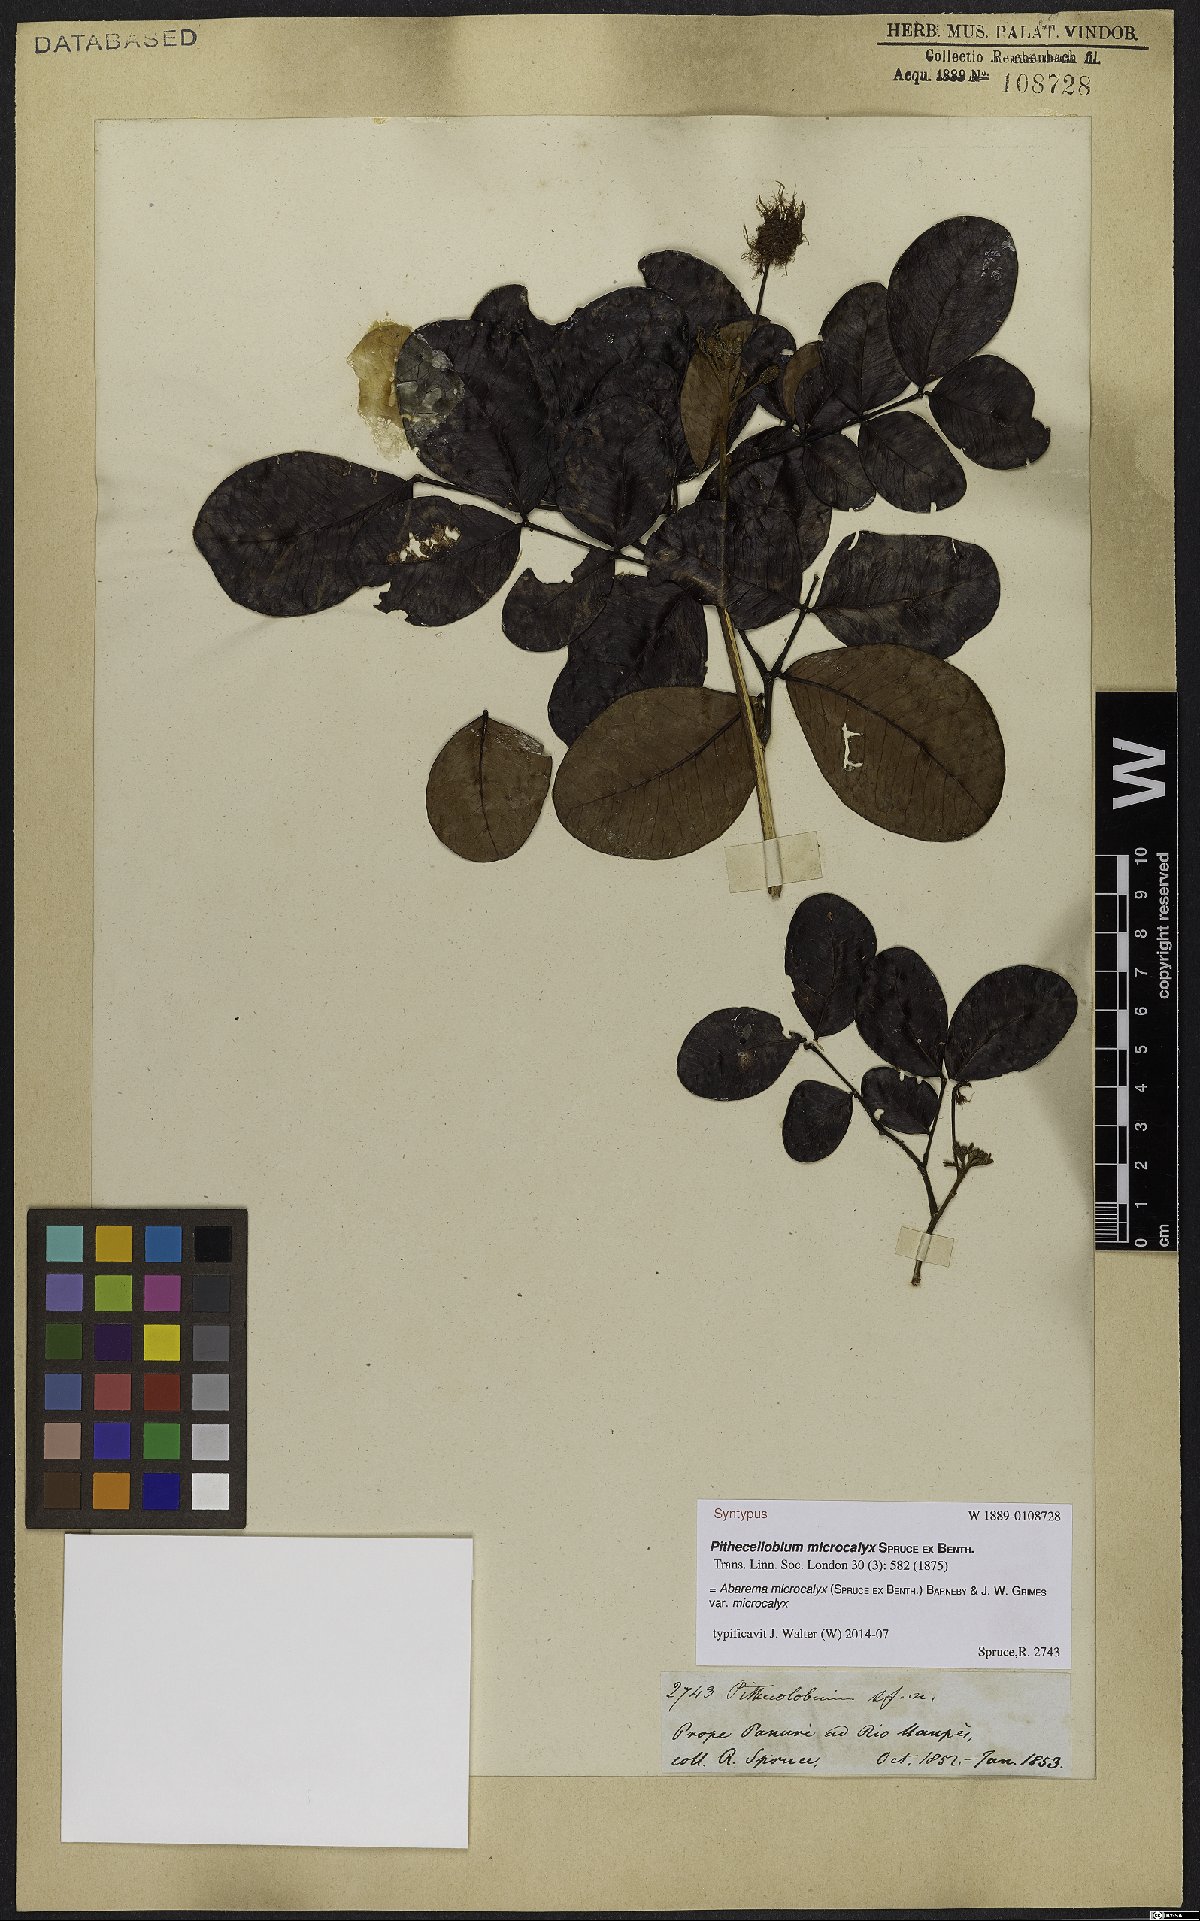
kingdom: Plantae
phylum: Tracheophyta
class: Magnoliopsida
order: Fabales
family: Fabaceae
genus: Jupunba
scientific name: Jupunba microcalyx
